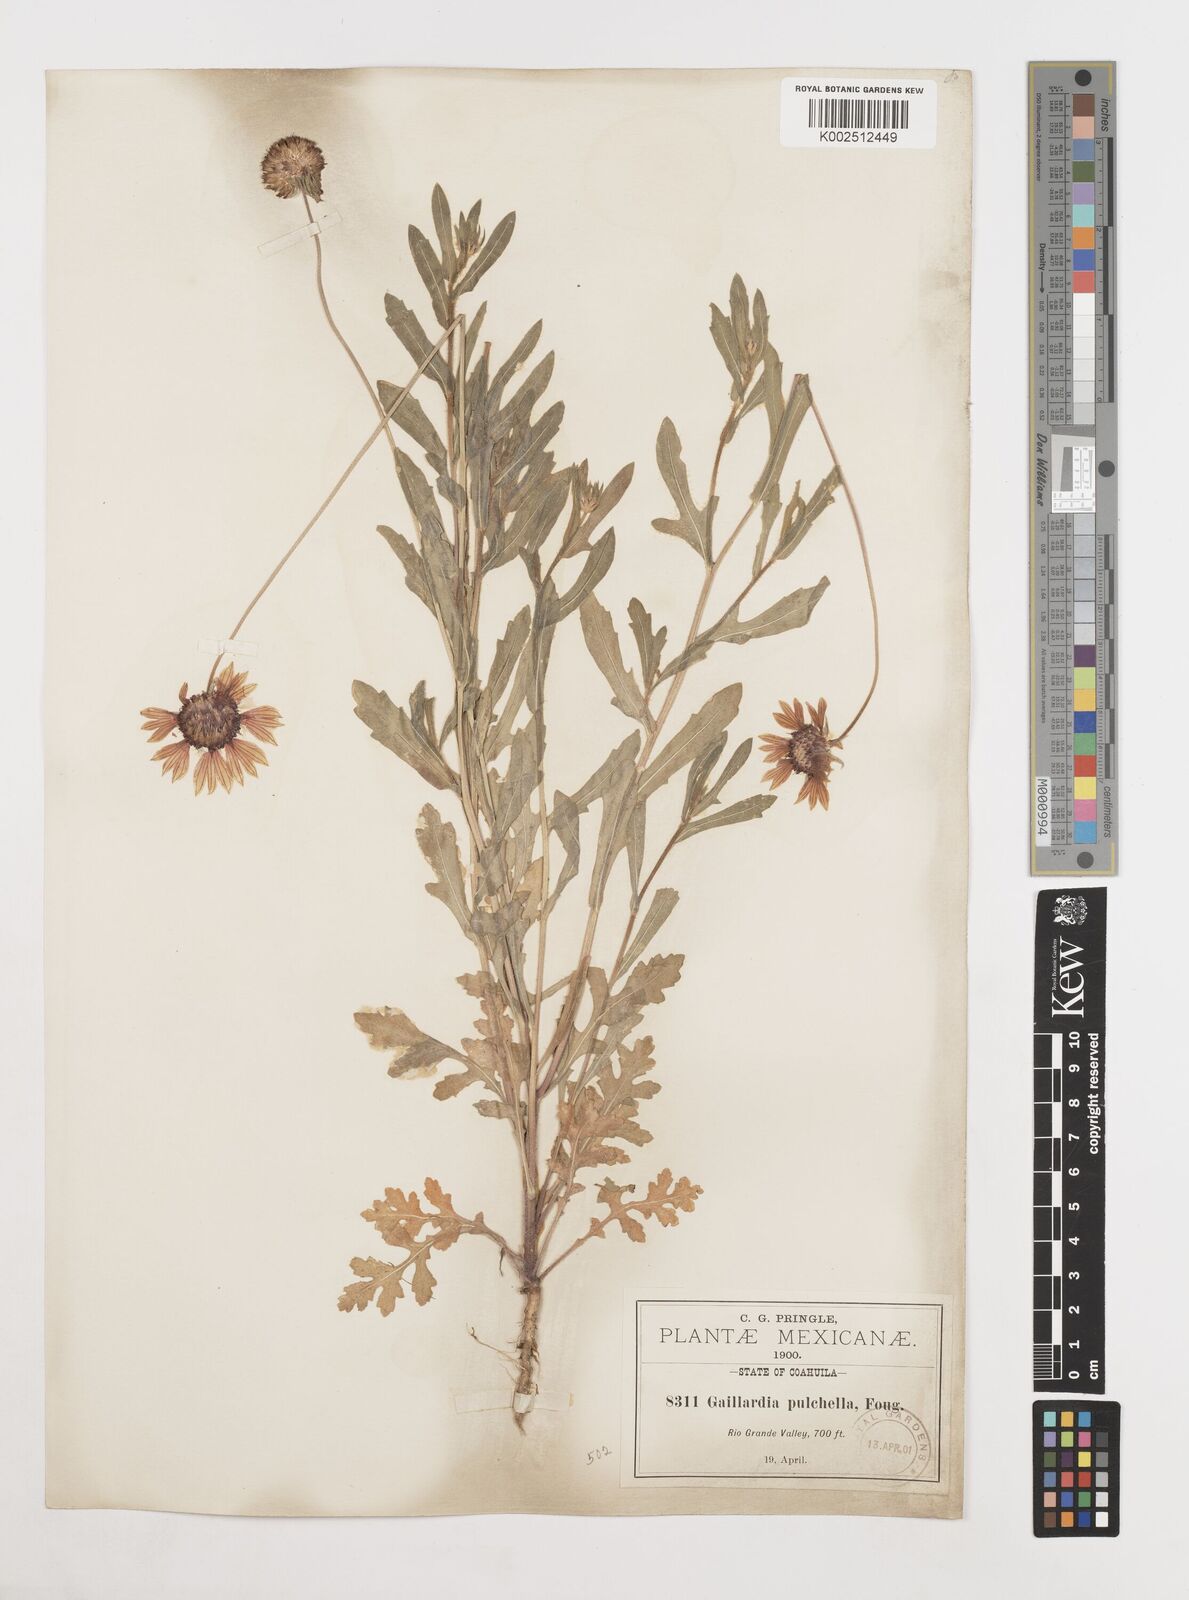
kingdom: Plantae
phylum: Tracheophyta
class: Magnoliopsida
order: Asterales
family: Asteraceae
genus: Gaillardia
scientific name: Gaillardia pulchella
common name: Firewheel
